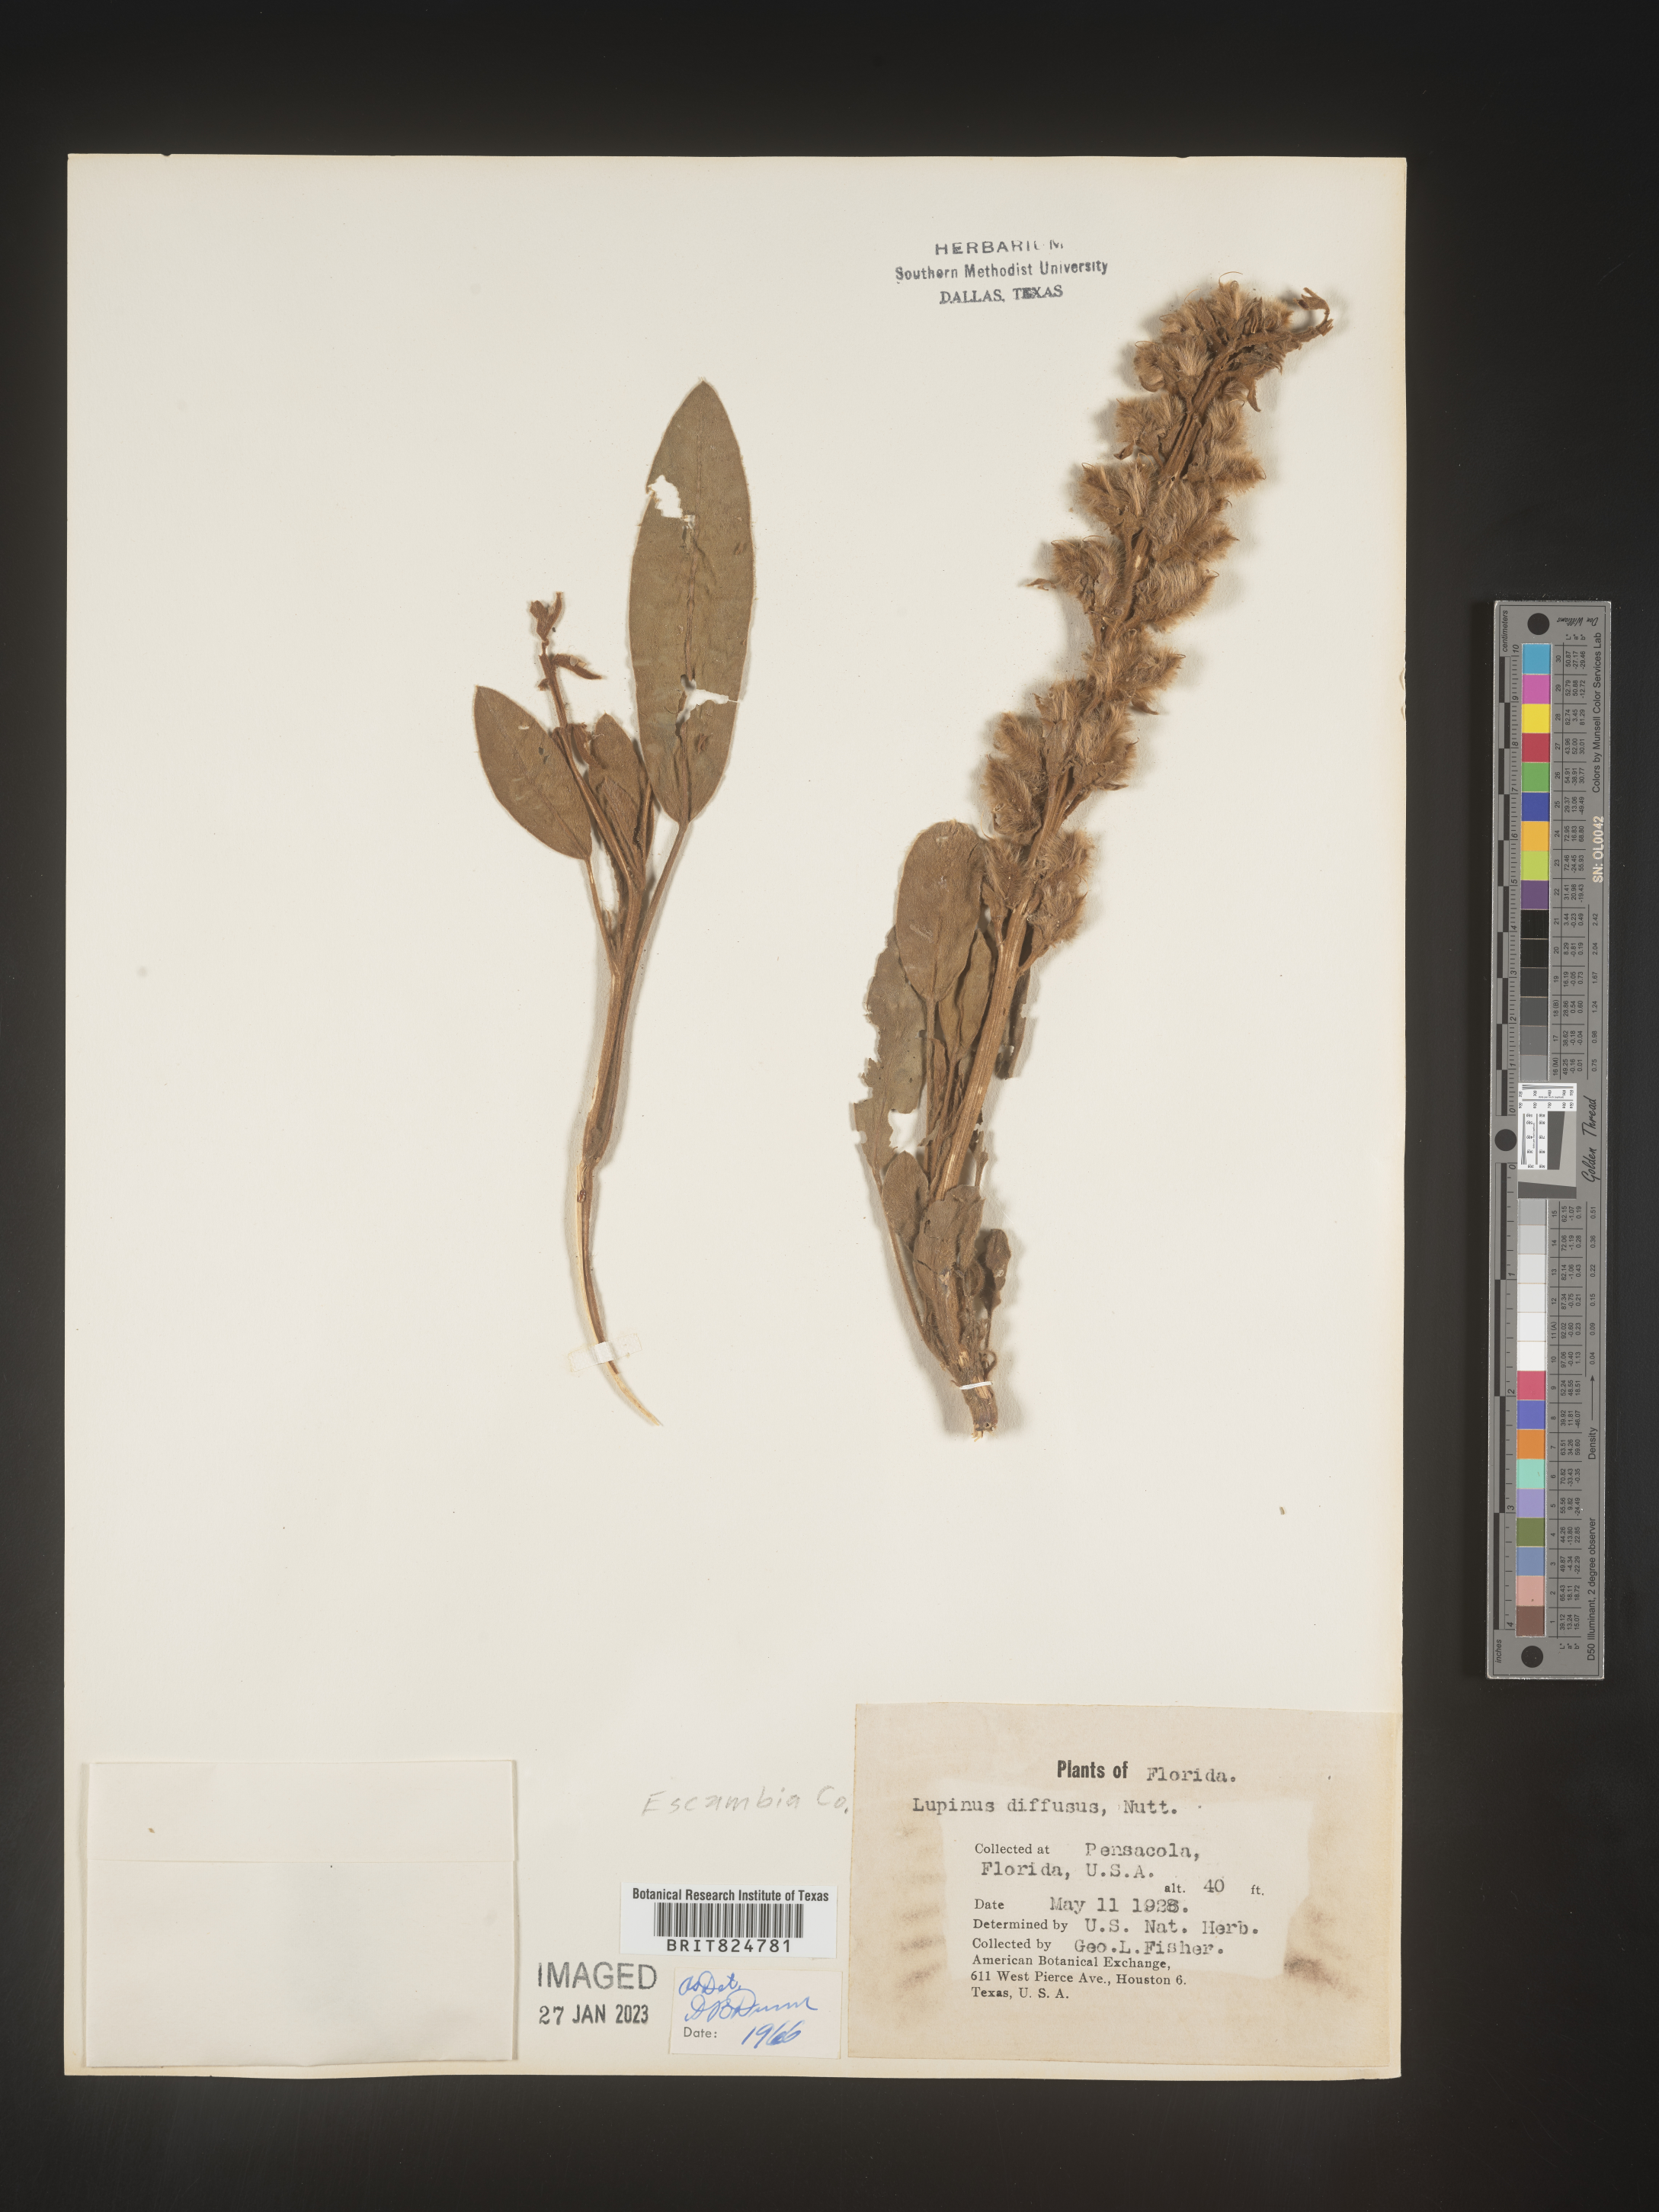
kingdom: Plantae
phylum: Tracheophyta
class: Magnoliopsida
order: Fabales
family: Fabaceae
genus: Lupinus
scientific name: Lupinus diffusus
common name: Oak ridge lupine
